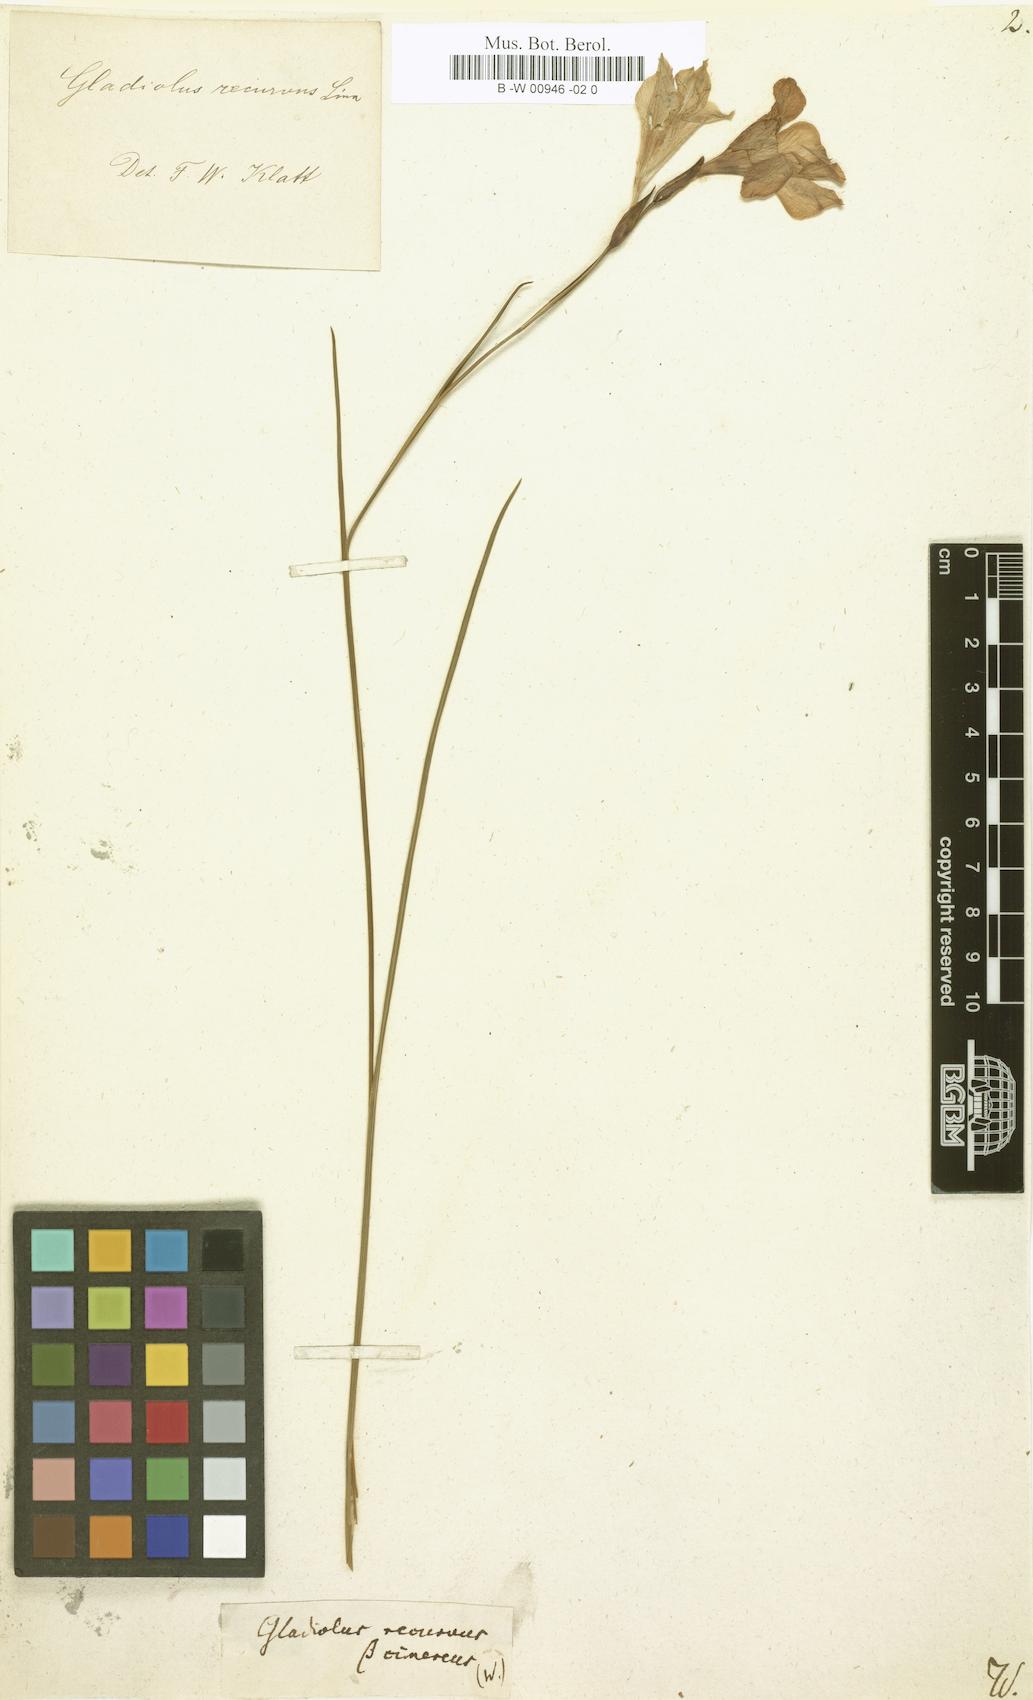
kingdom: Plantae
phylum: Tracheophyta
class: Liliopsida
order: Asparagales
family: Iridaceae
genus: Gladiolus
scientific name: Gladiolus recurvus
